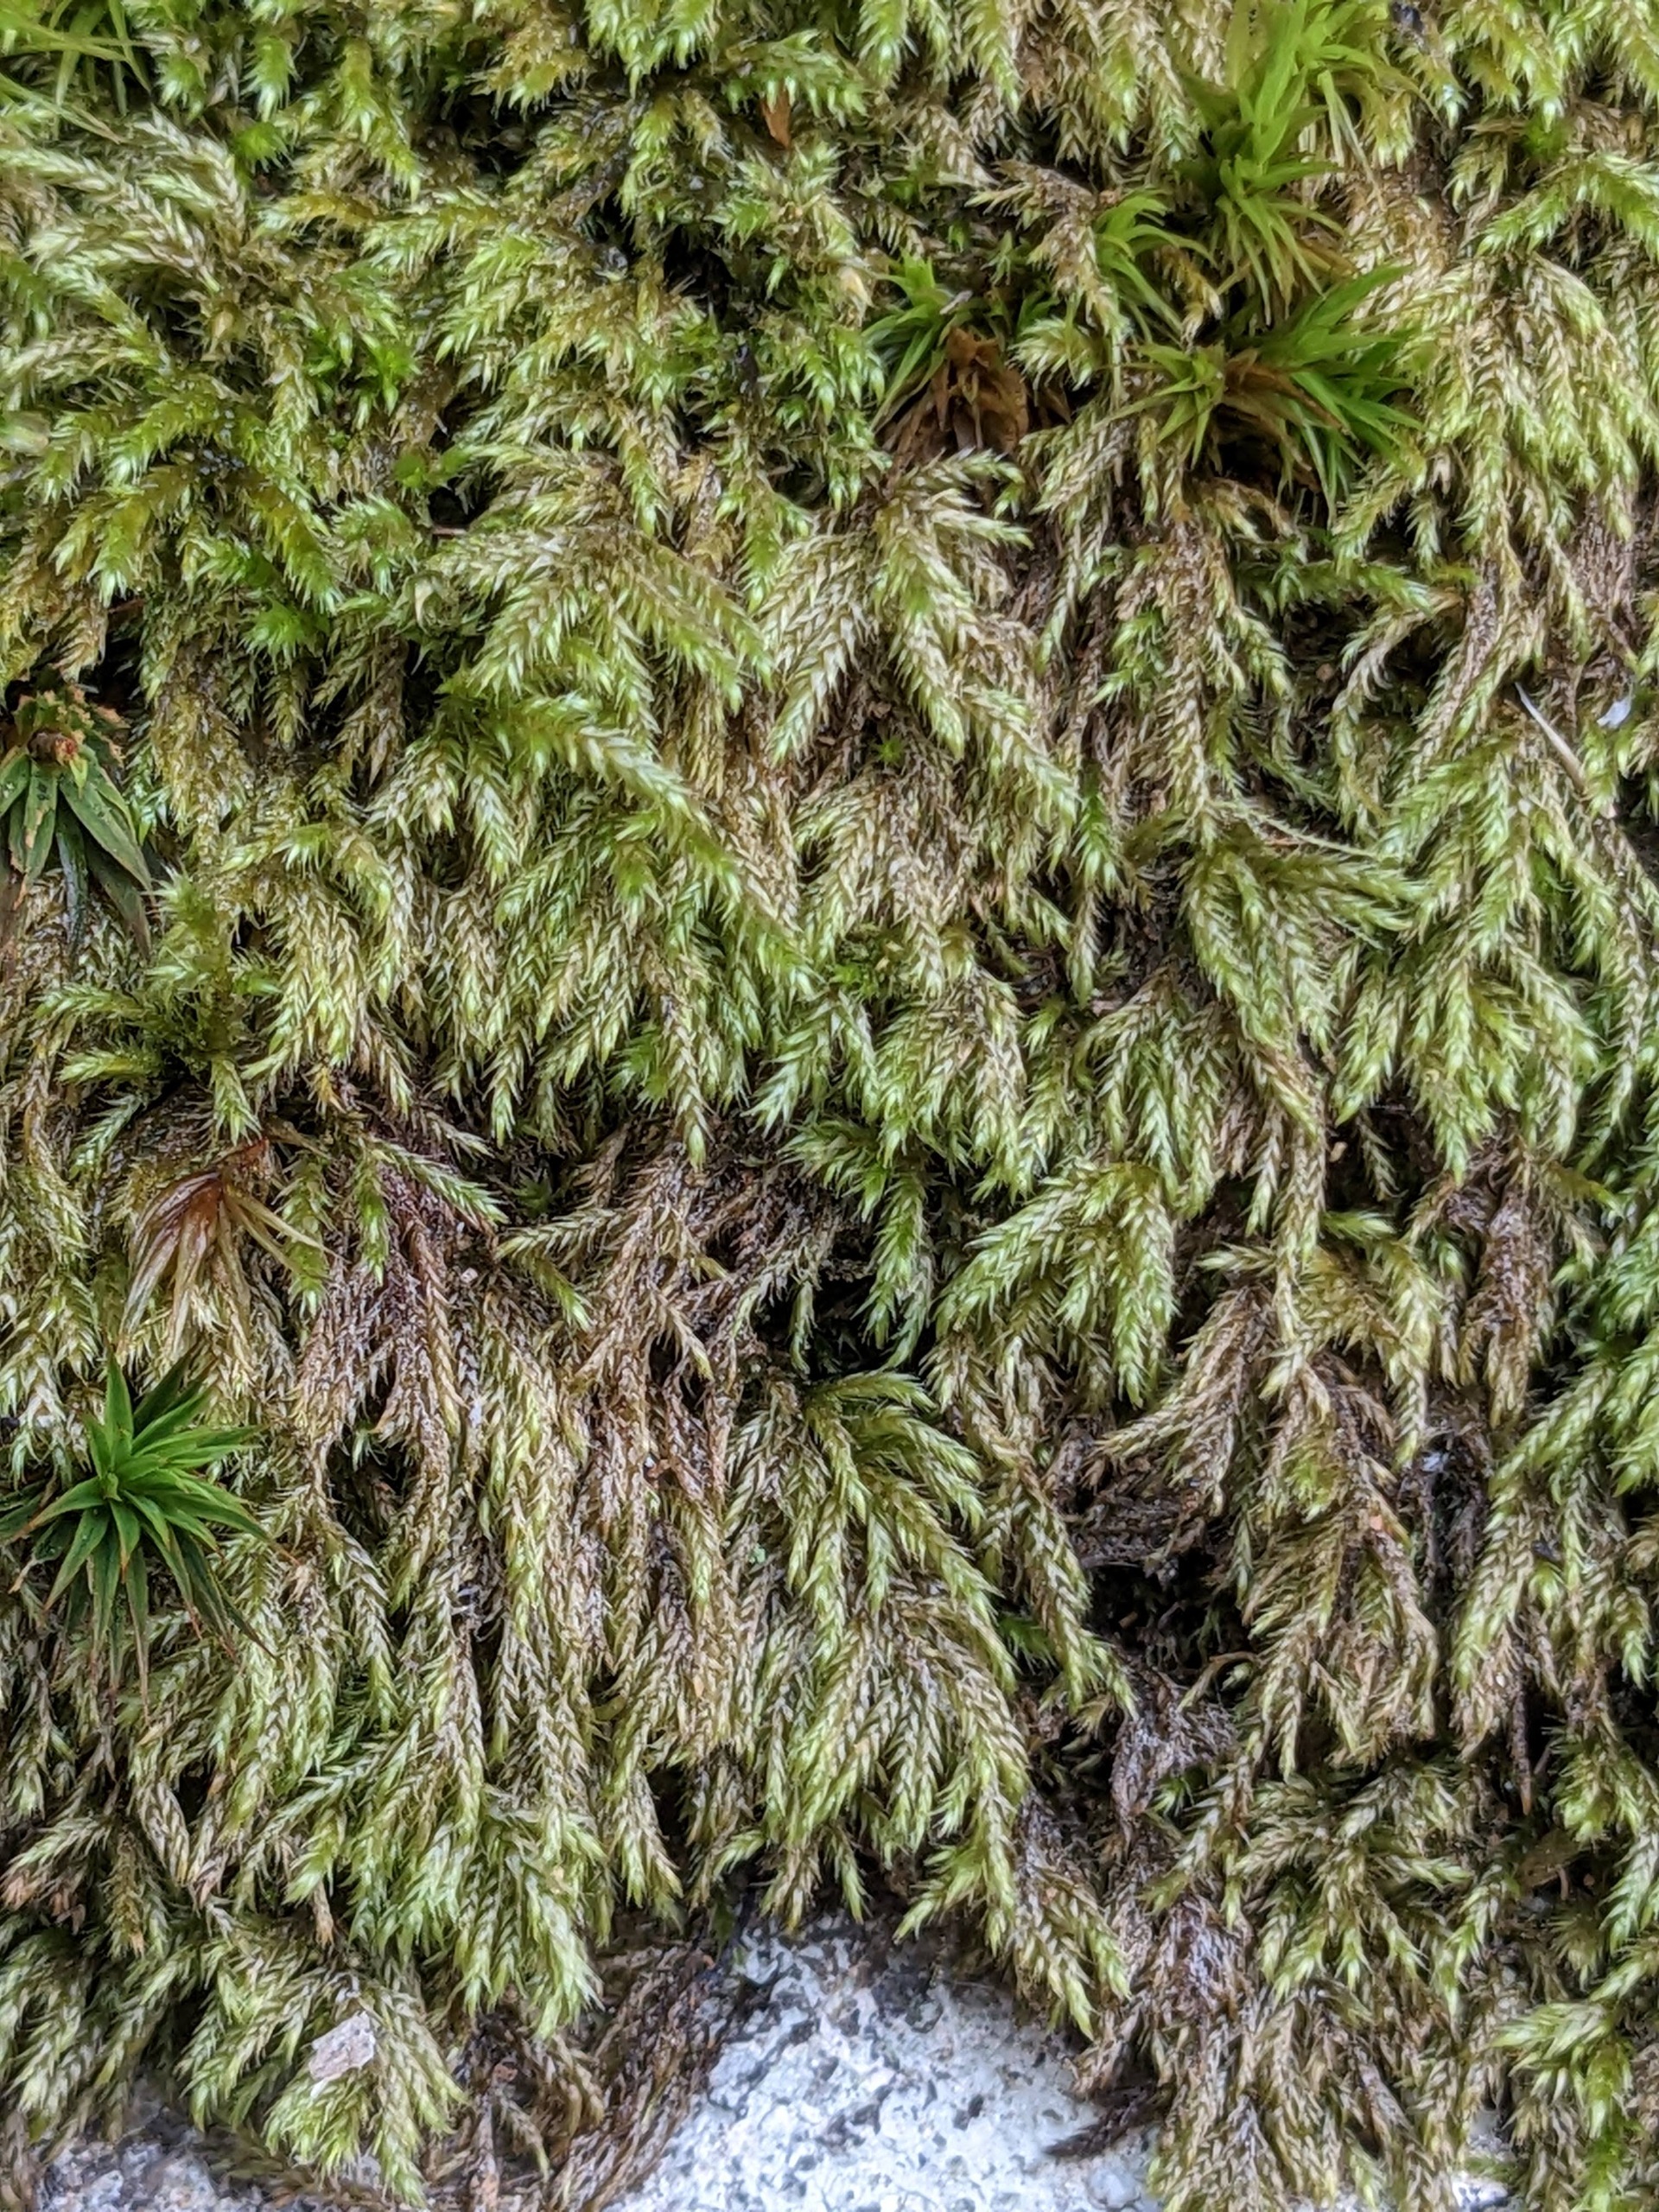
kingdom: Plantae
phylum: Bryophyta
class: Bryopsida
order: Hypnales
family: Lembophyllaceae
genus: Pseudisothecium
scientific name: Pseudisothecium myosuroides
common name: Slank stammemos
